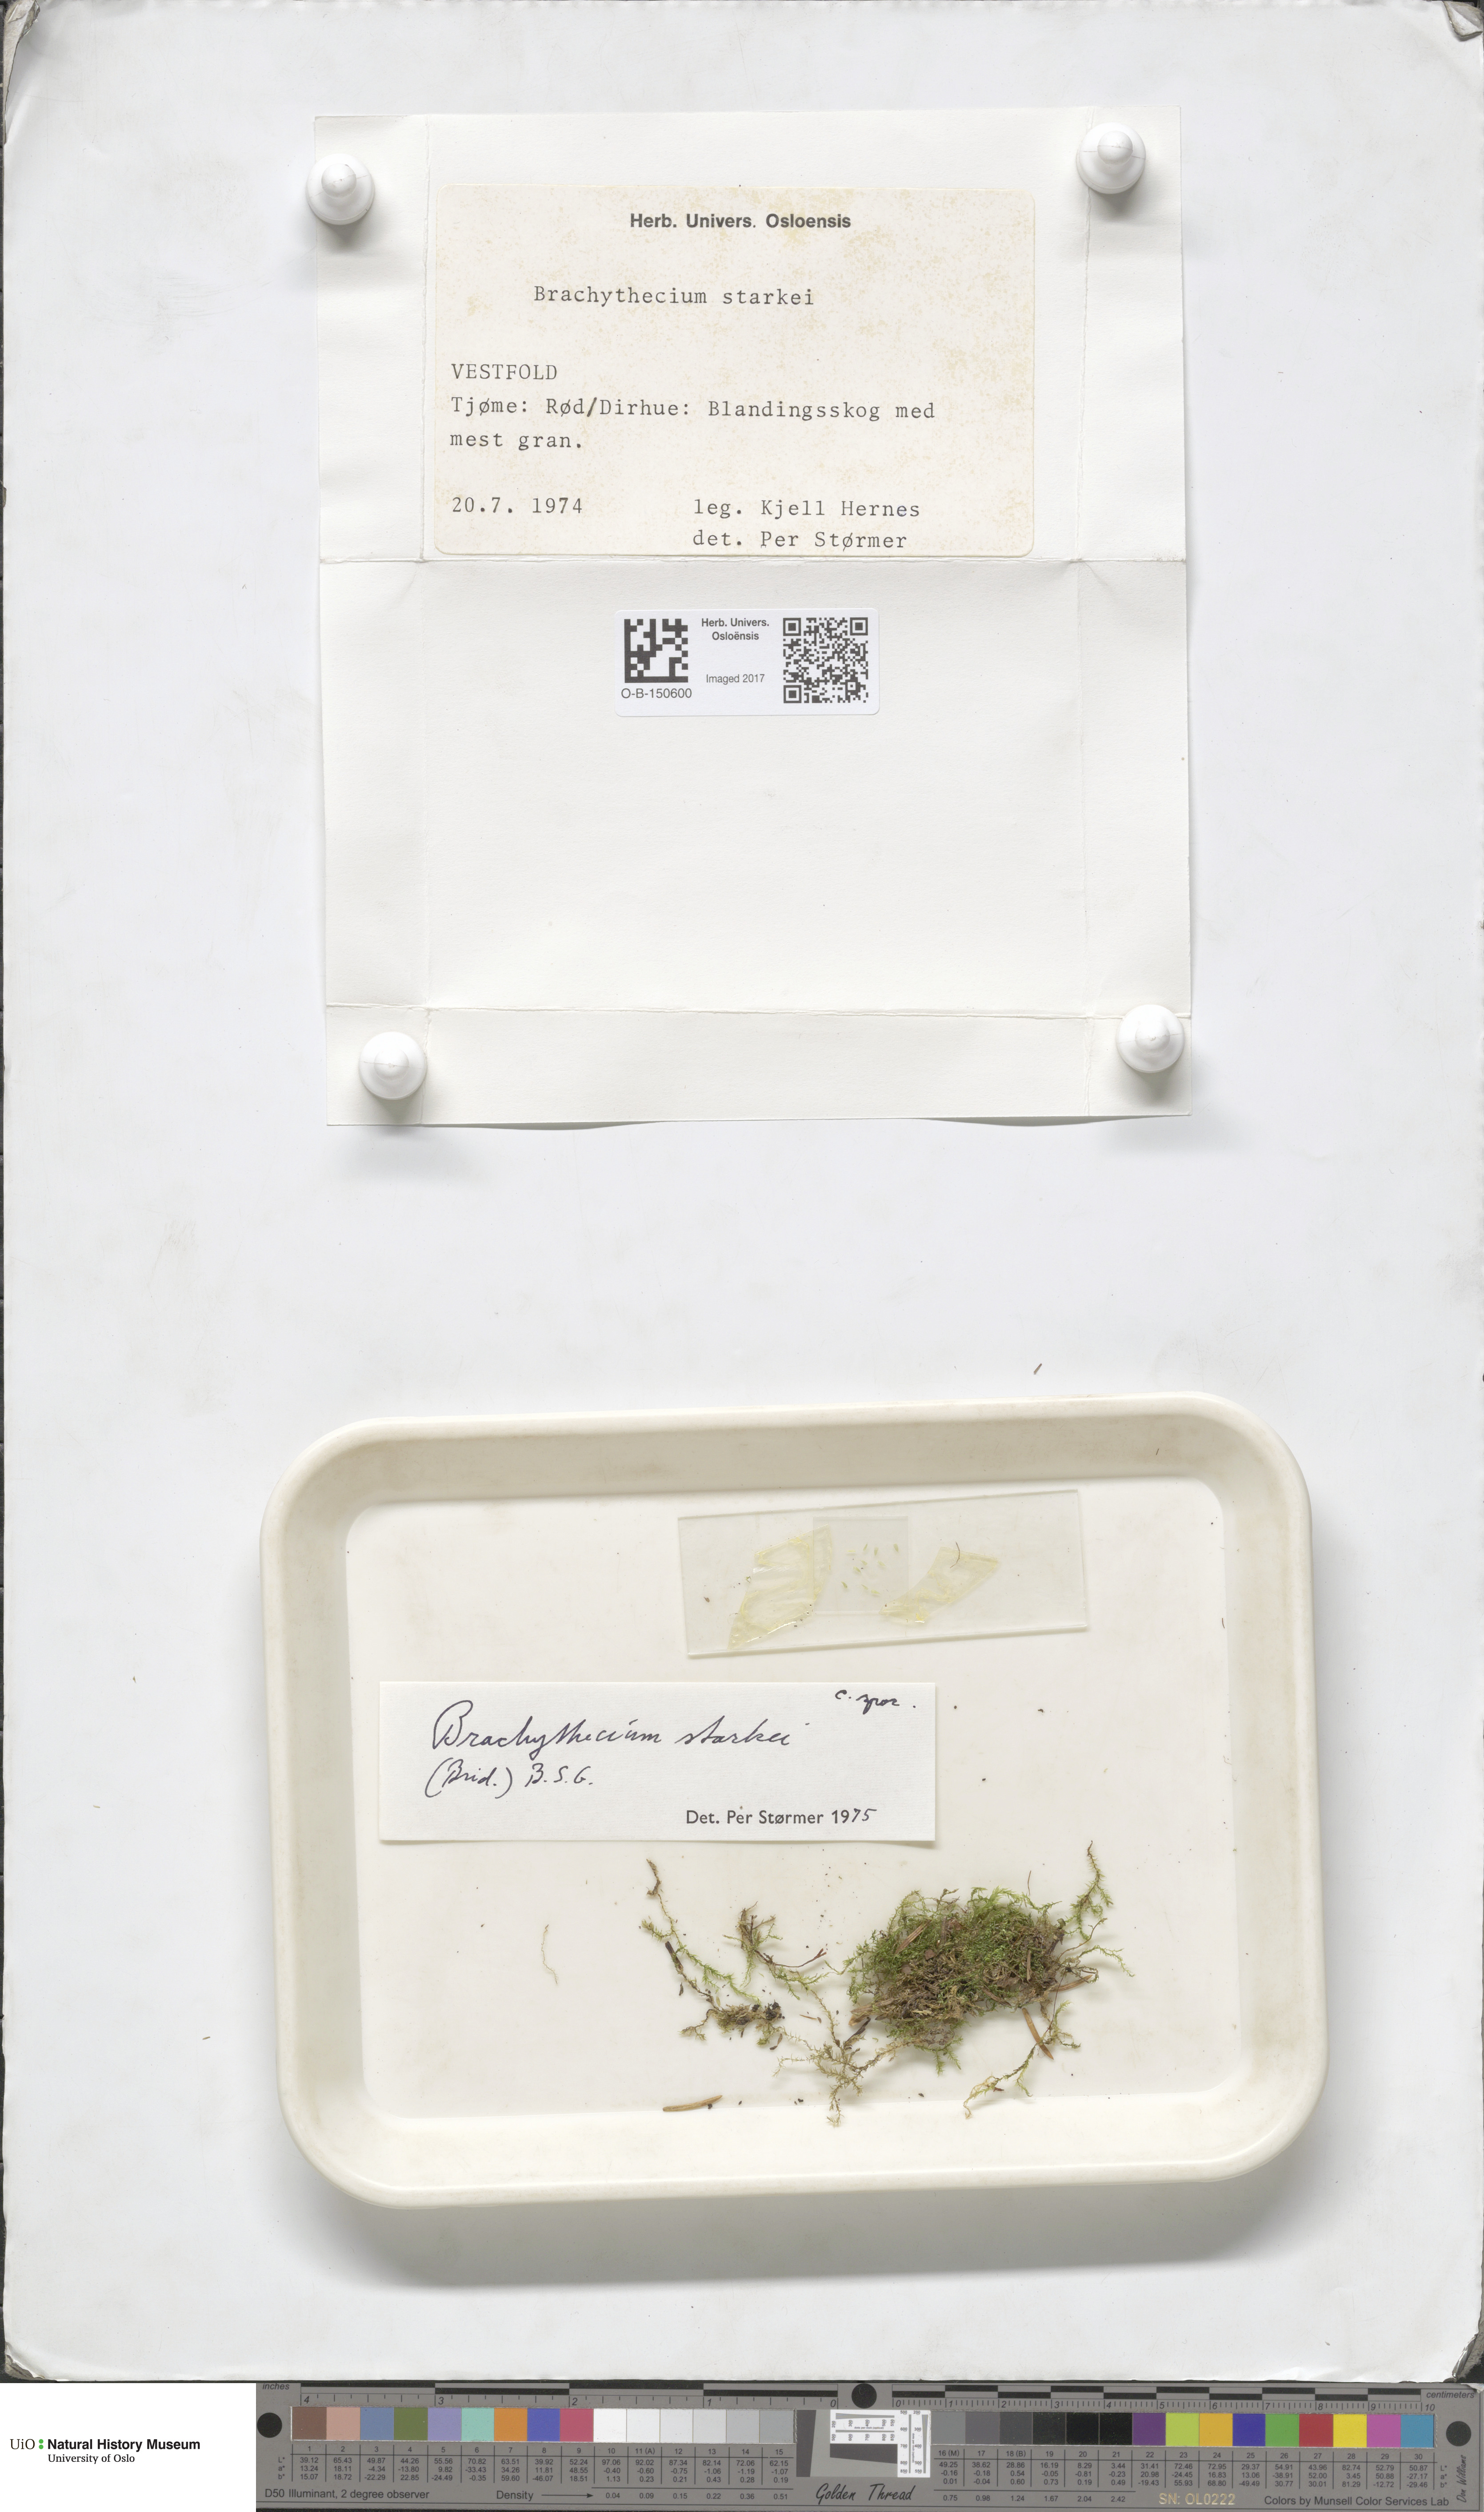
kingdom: Plantae
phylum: Bryophyta
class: Bryopsida
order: Hypnales
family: Brachytheciaceae
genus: Sciuro-hypnum
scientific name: Sciuro-hypnum starkei
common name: Starke's feather-moss
